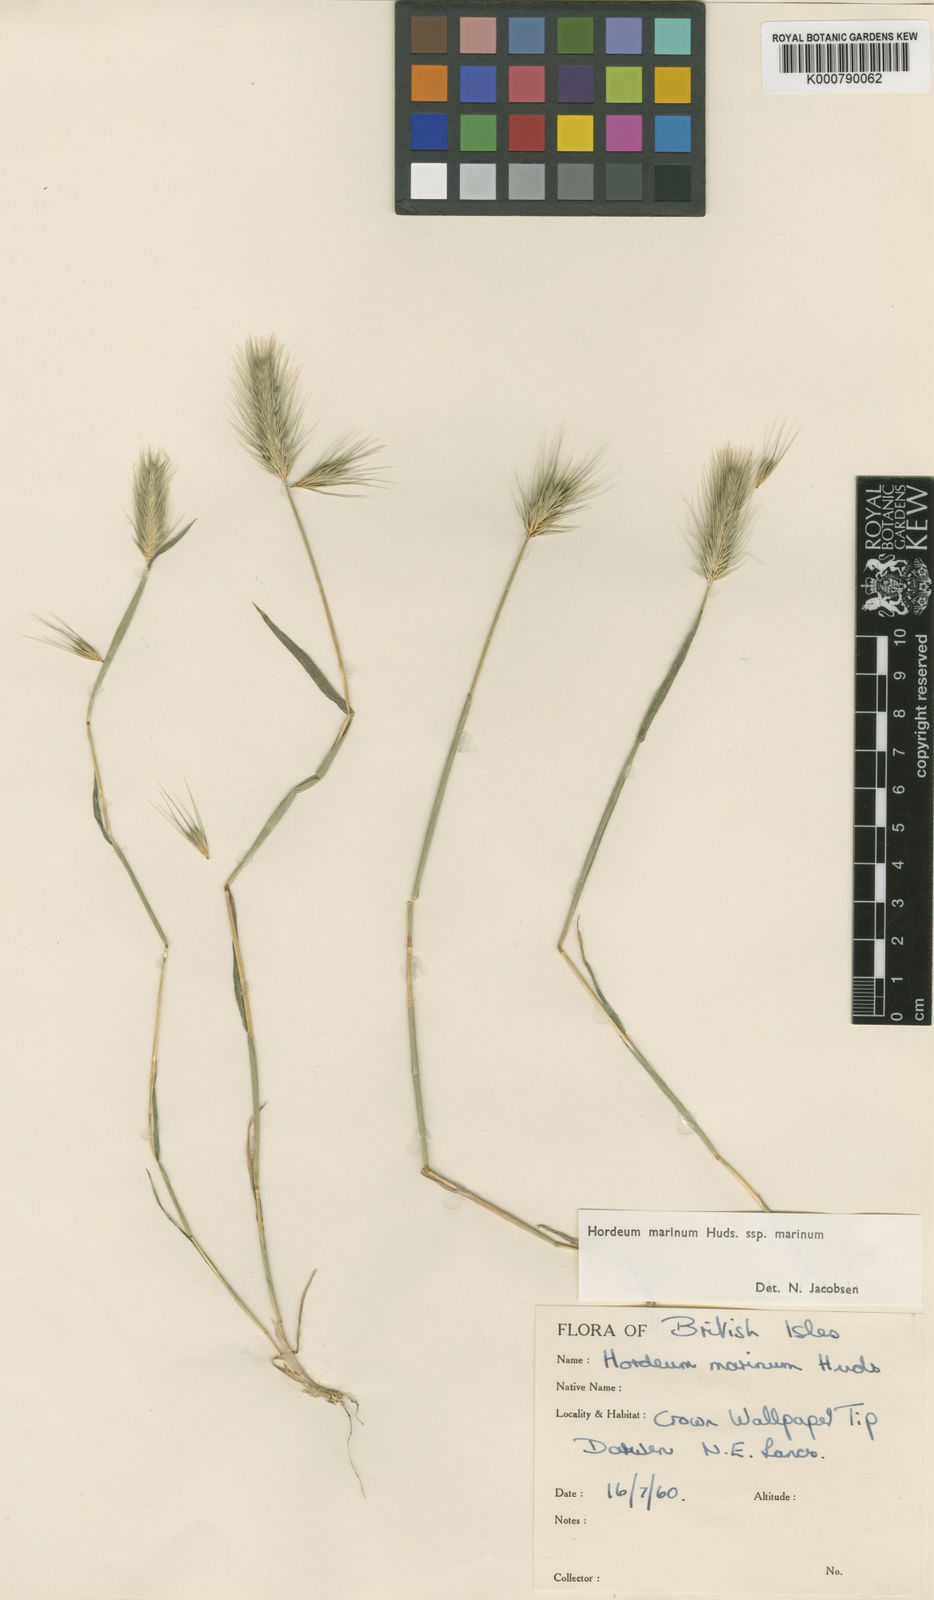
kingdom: Plantae
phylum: Tracheophyta
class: Liliopsida
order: Poales
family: Poaceae
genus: Hordeum
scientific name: Hordeum marinum
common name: Sea barley
